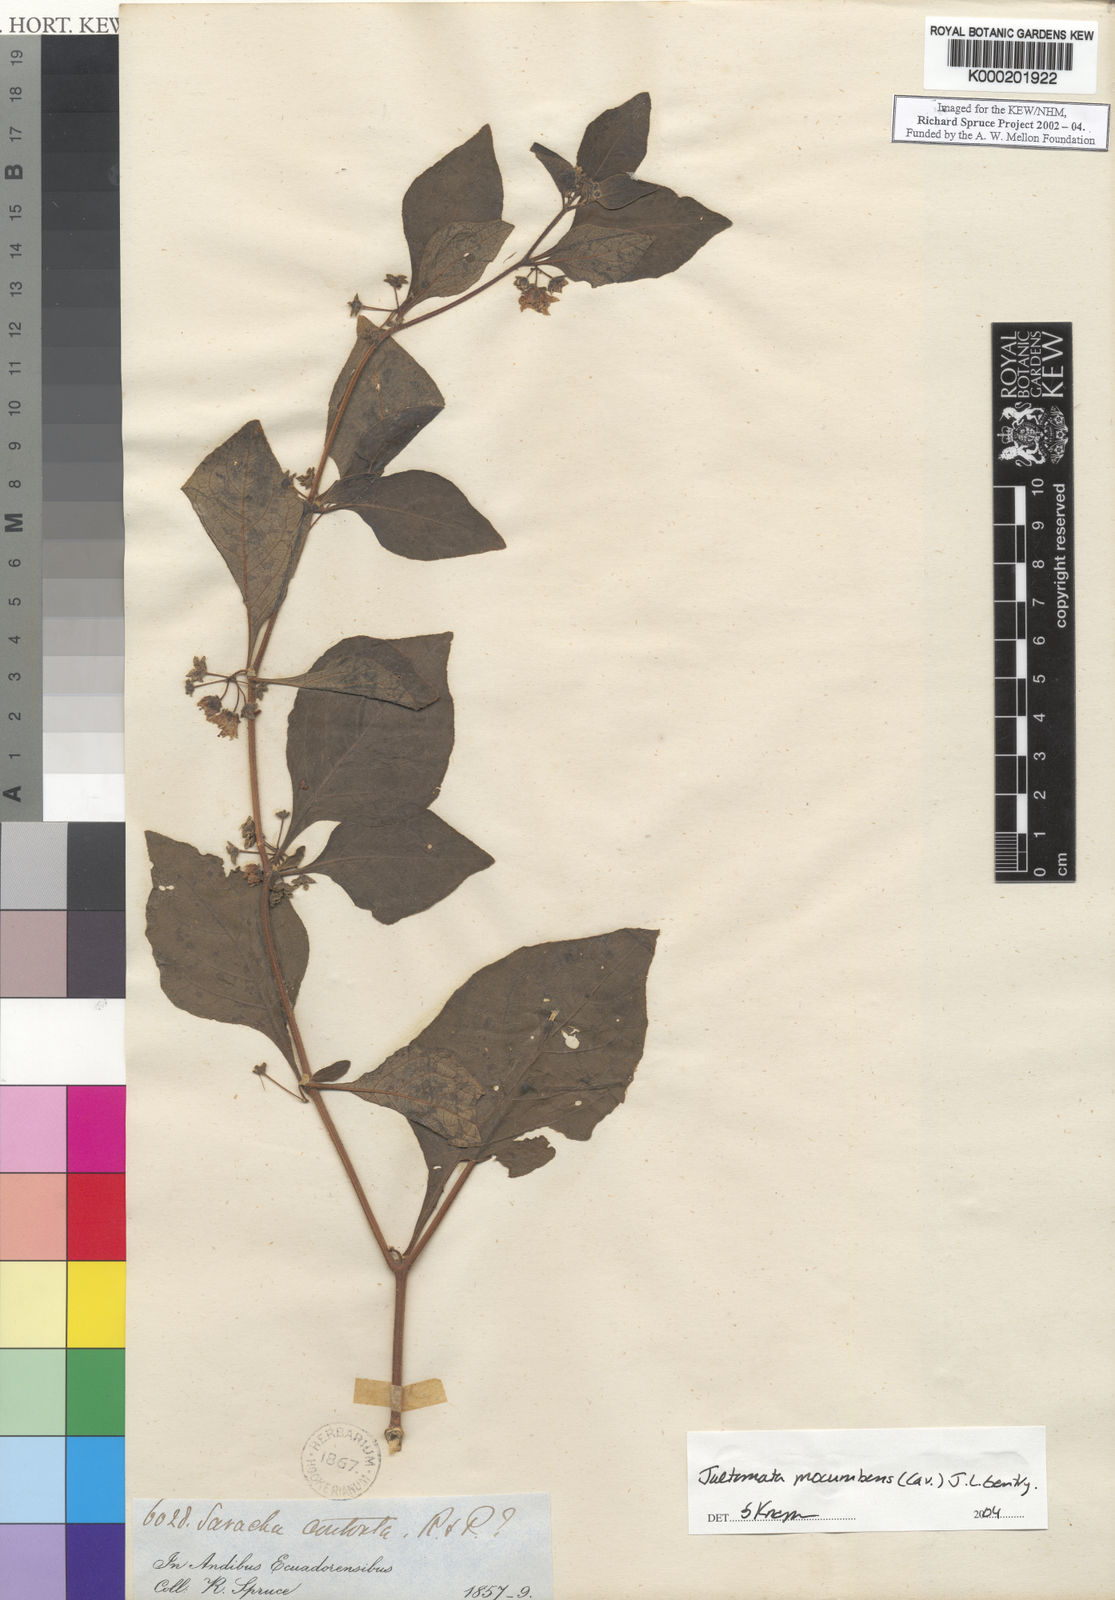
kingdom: Plantae
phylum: Tracheophyta
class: Magnoliopsida
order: Solanales
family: Solanaceae
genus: Jaltomata
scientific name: Jaltomata procumbens
